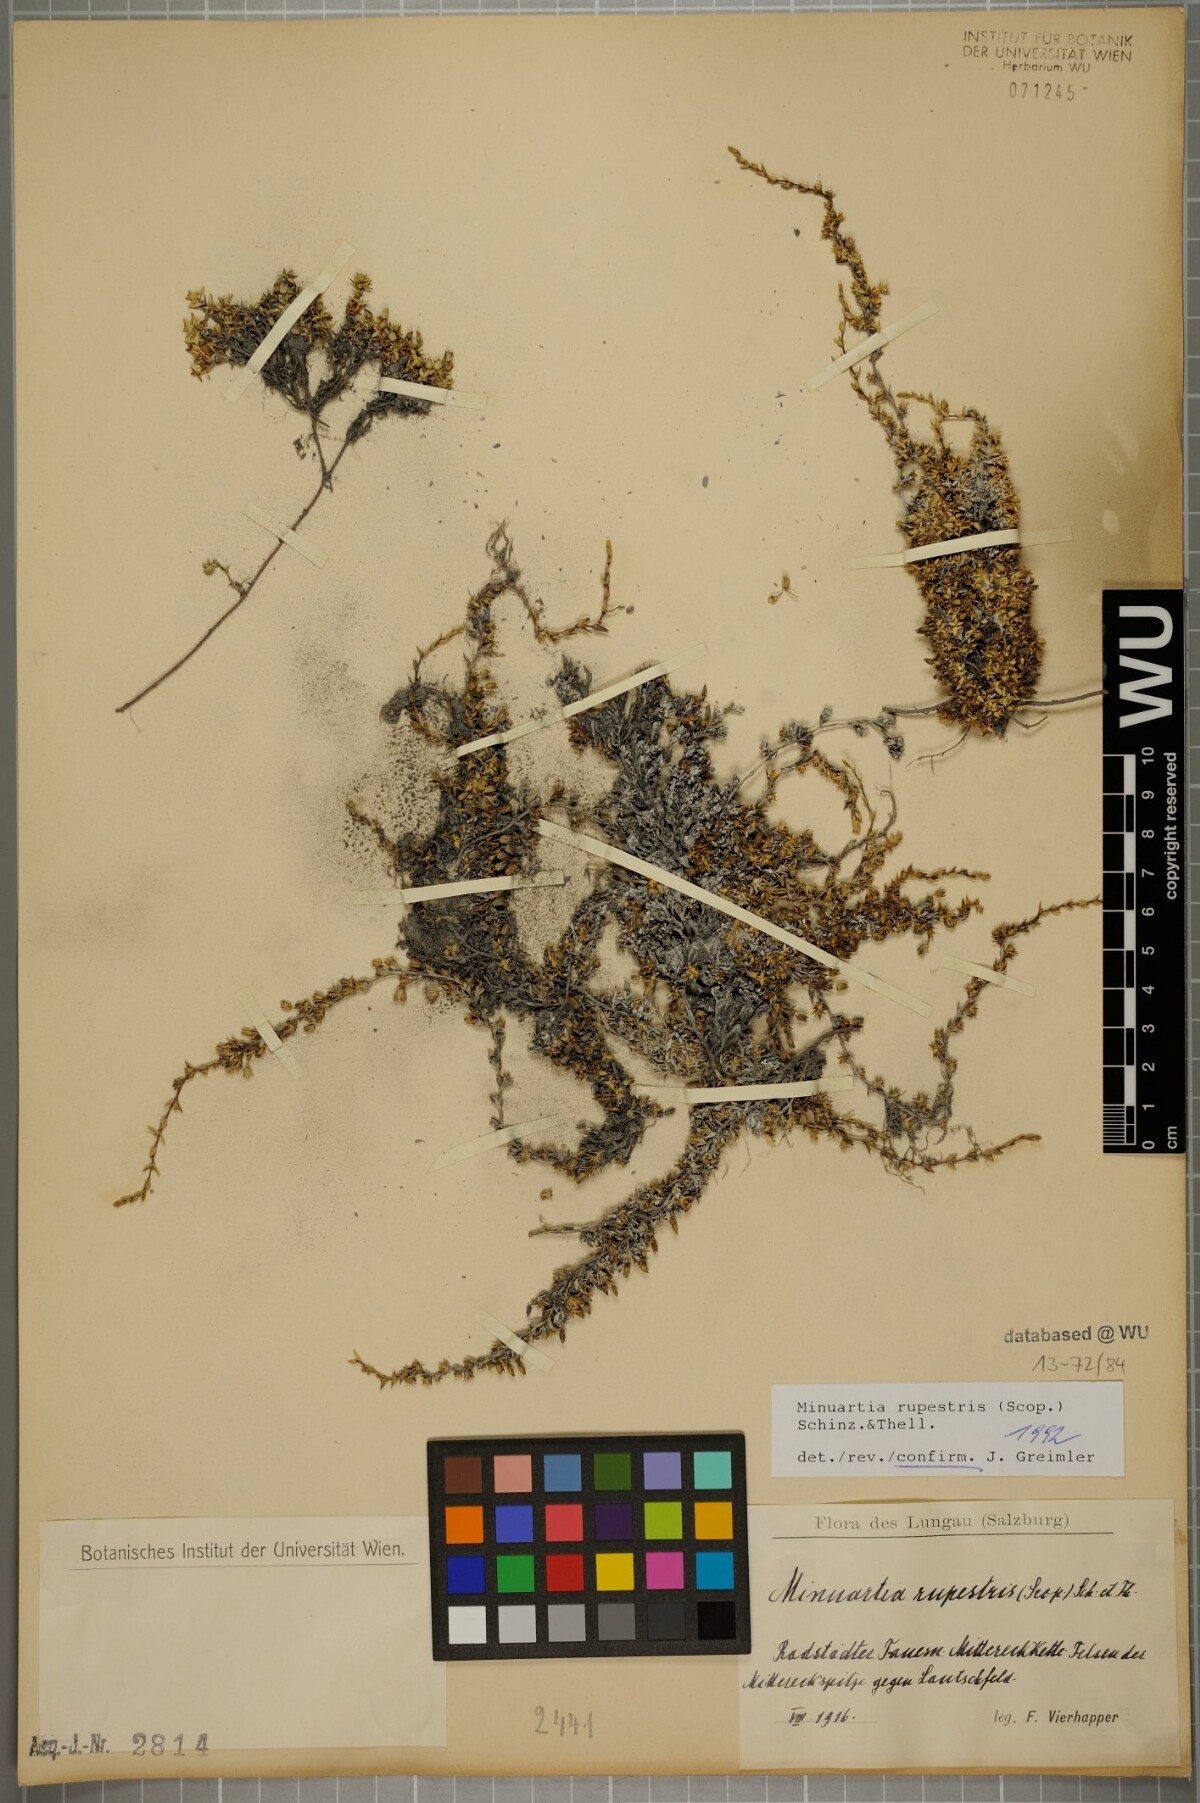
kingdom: Plantae
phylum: Tracheophyta
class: Magnoliopsida
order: Caryophyllales
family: Caryophyllaceae
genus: Facchinia
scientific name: Facchinia rupestris
